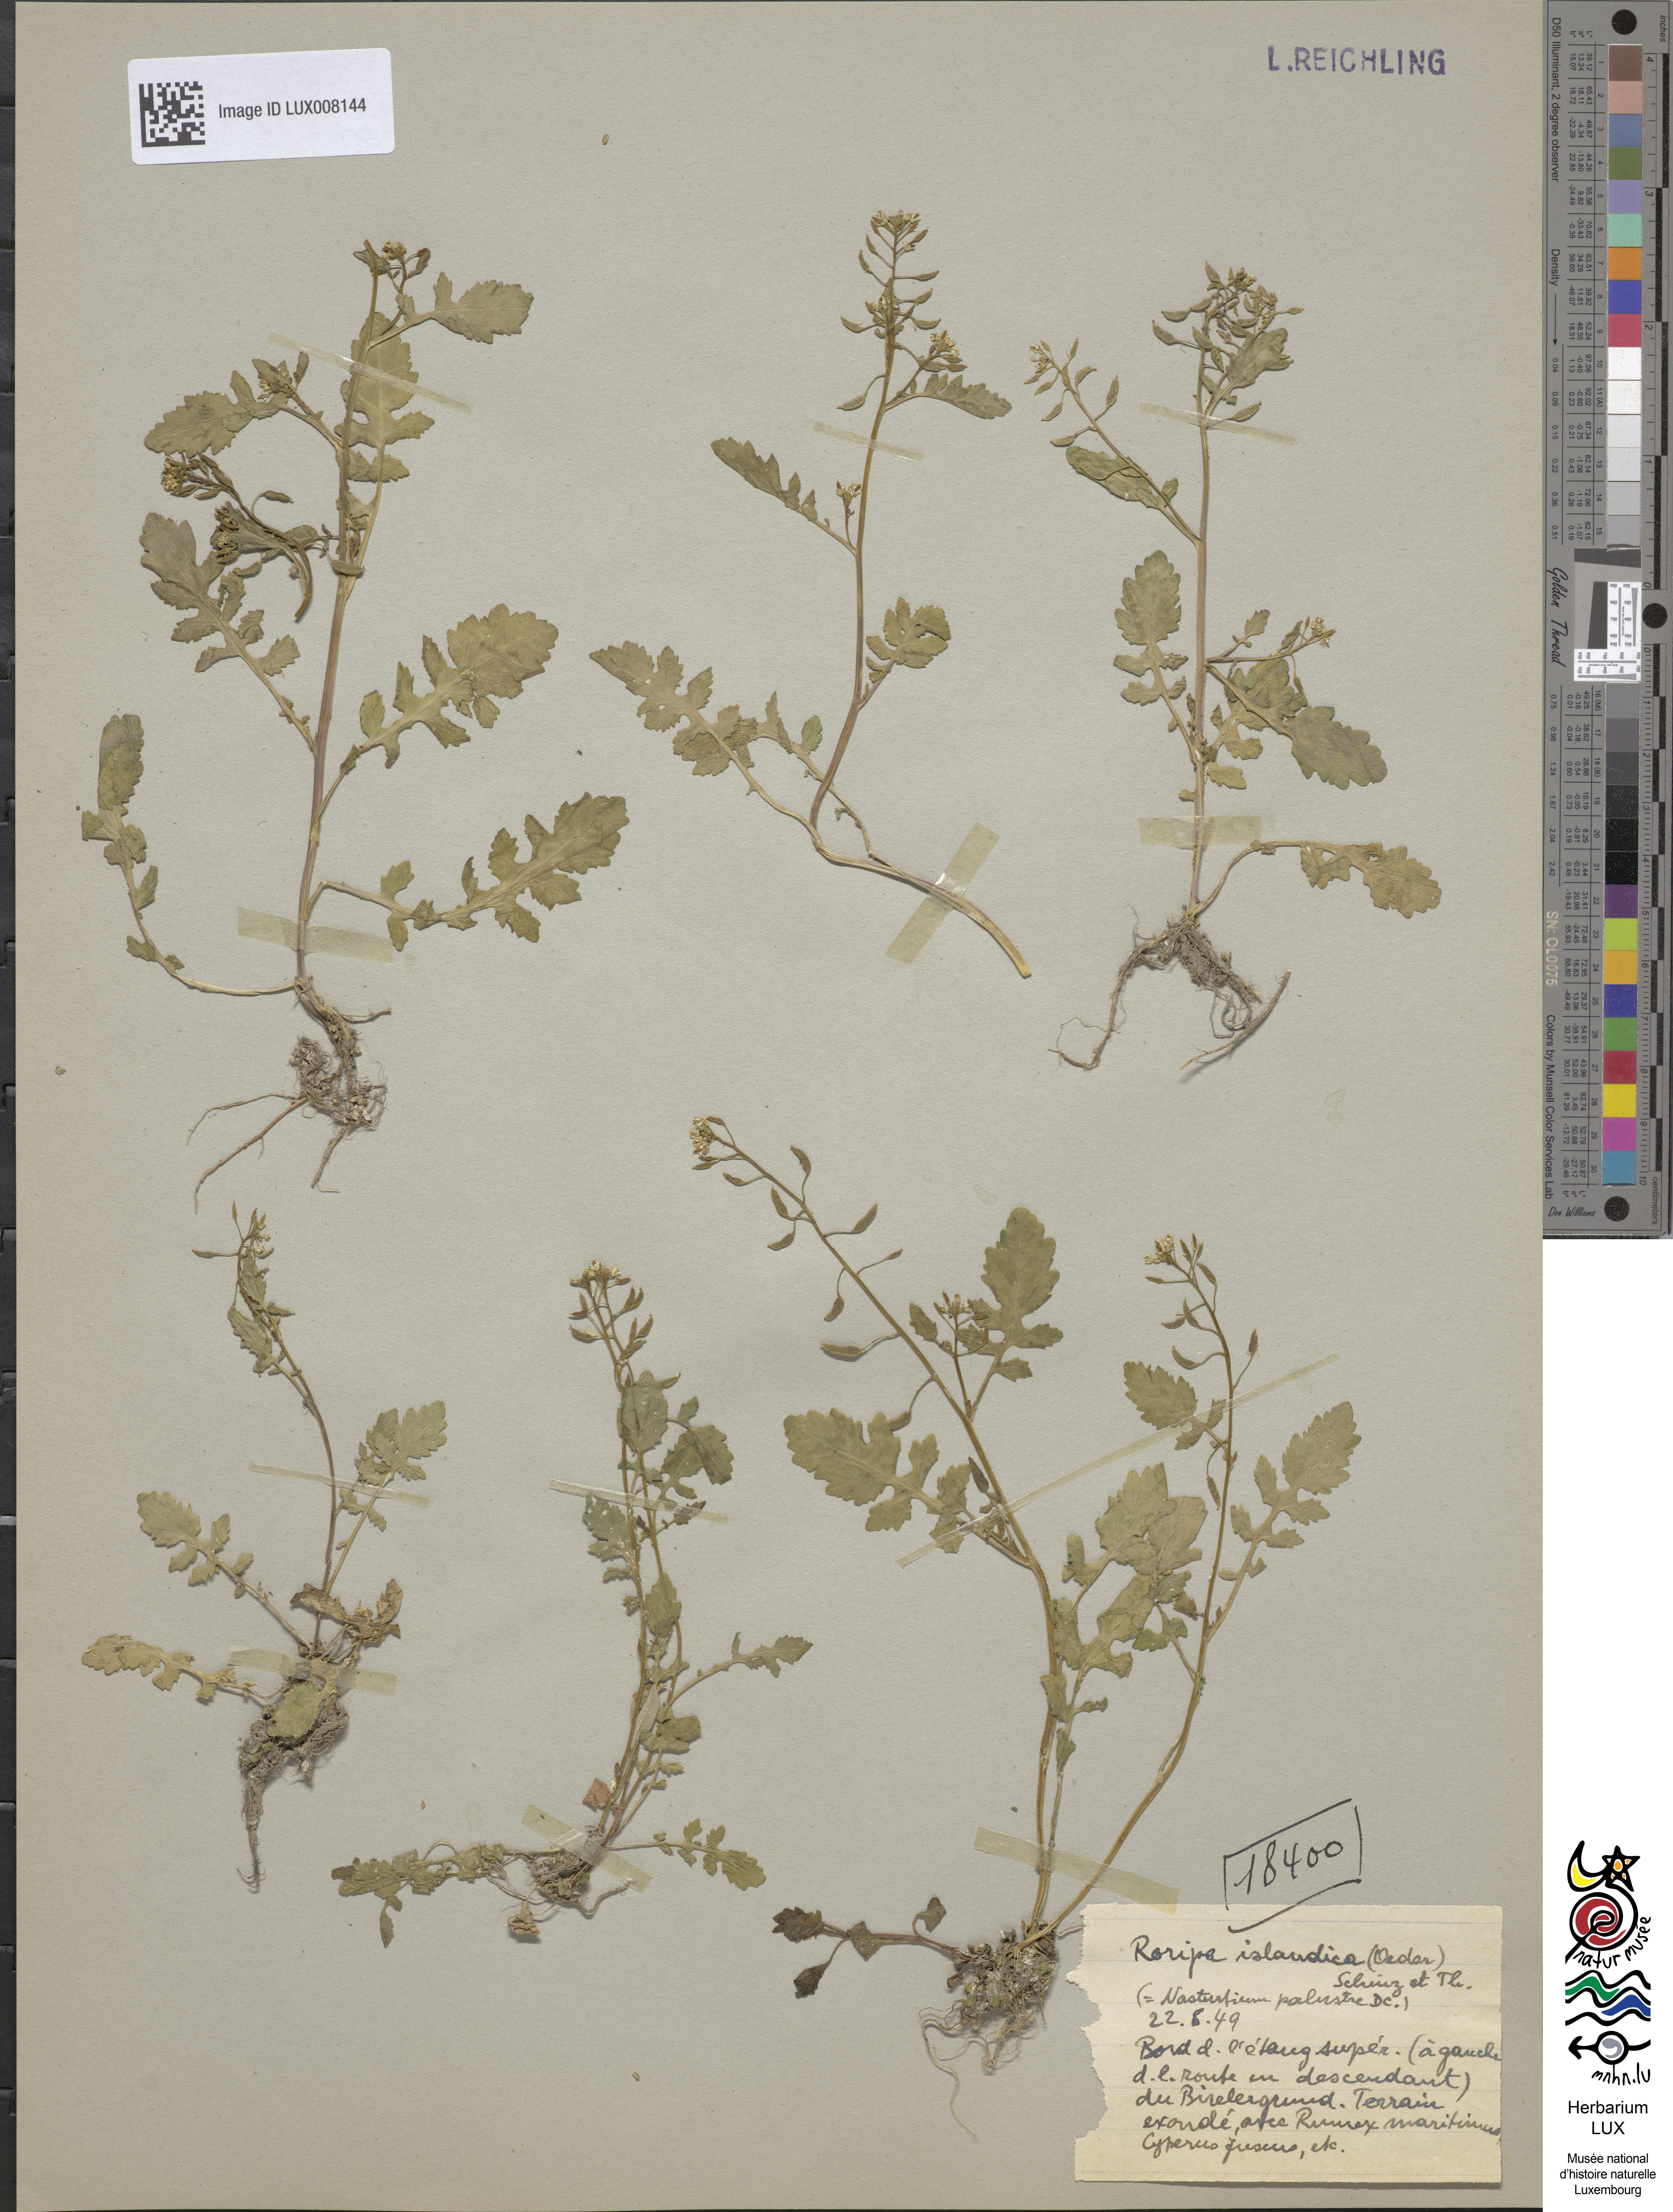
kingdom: Plantae
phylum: Tracheophyta
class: Magnoliopsida
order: Brassicales
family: Brassicaceae
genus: Rorippa
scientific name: Rorippa islandica
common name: Marsh cress
